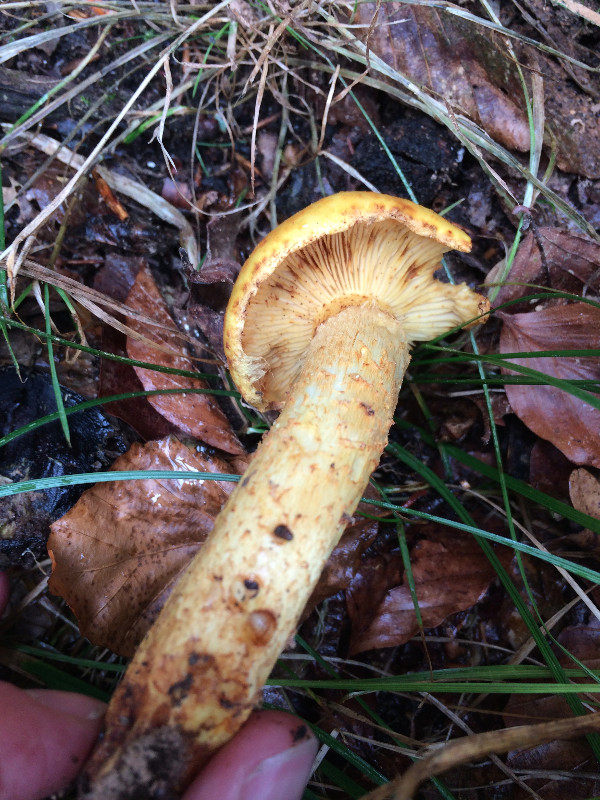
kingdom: Fungi
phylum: Basidiomycota
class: Agaricomycetes
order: Agaricales
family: Strophariaceae
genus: Pholiota
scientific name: Pholiota adiposa
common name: højtsiddende skælhat
